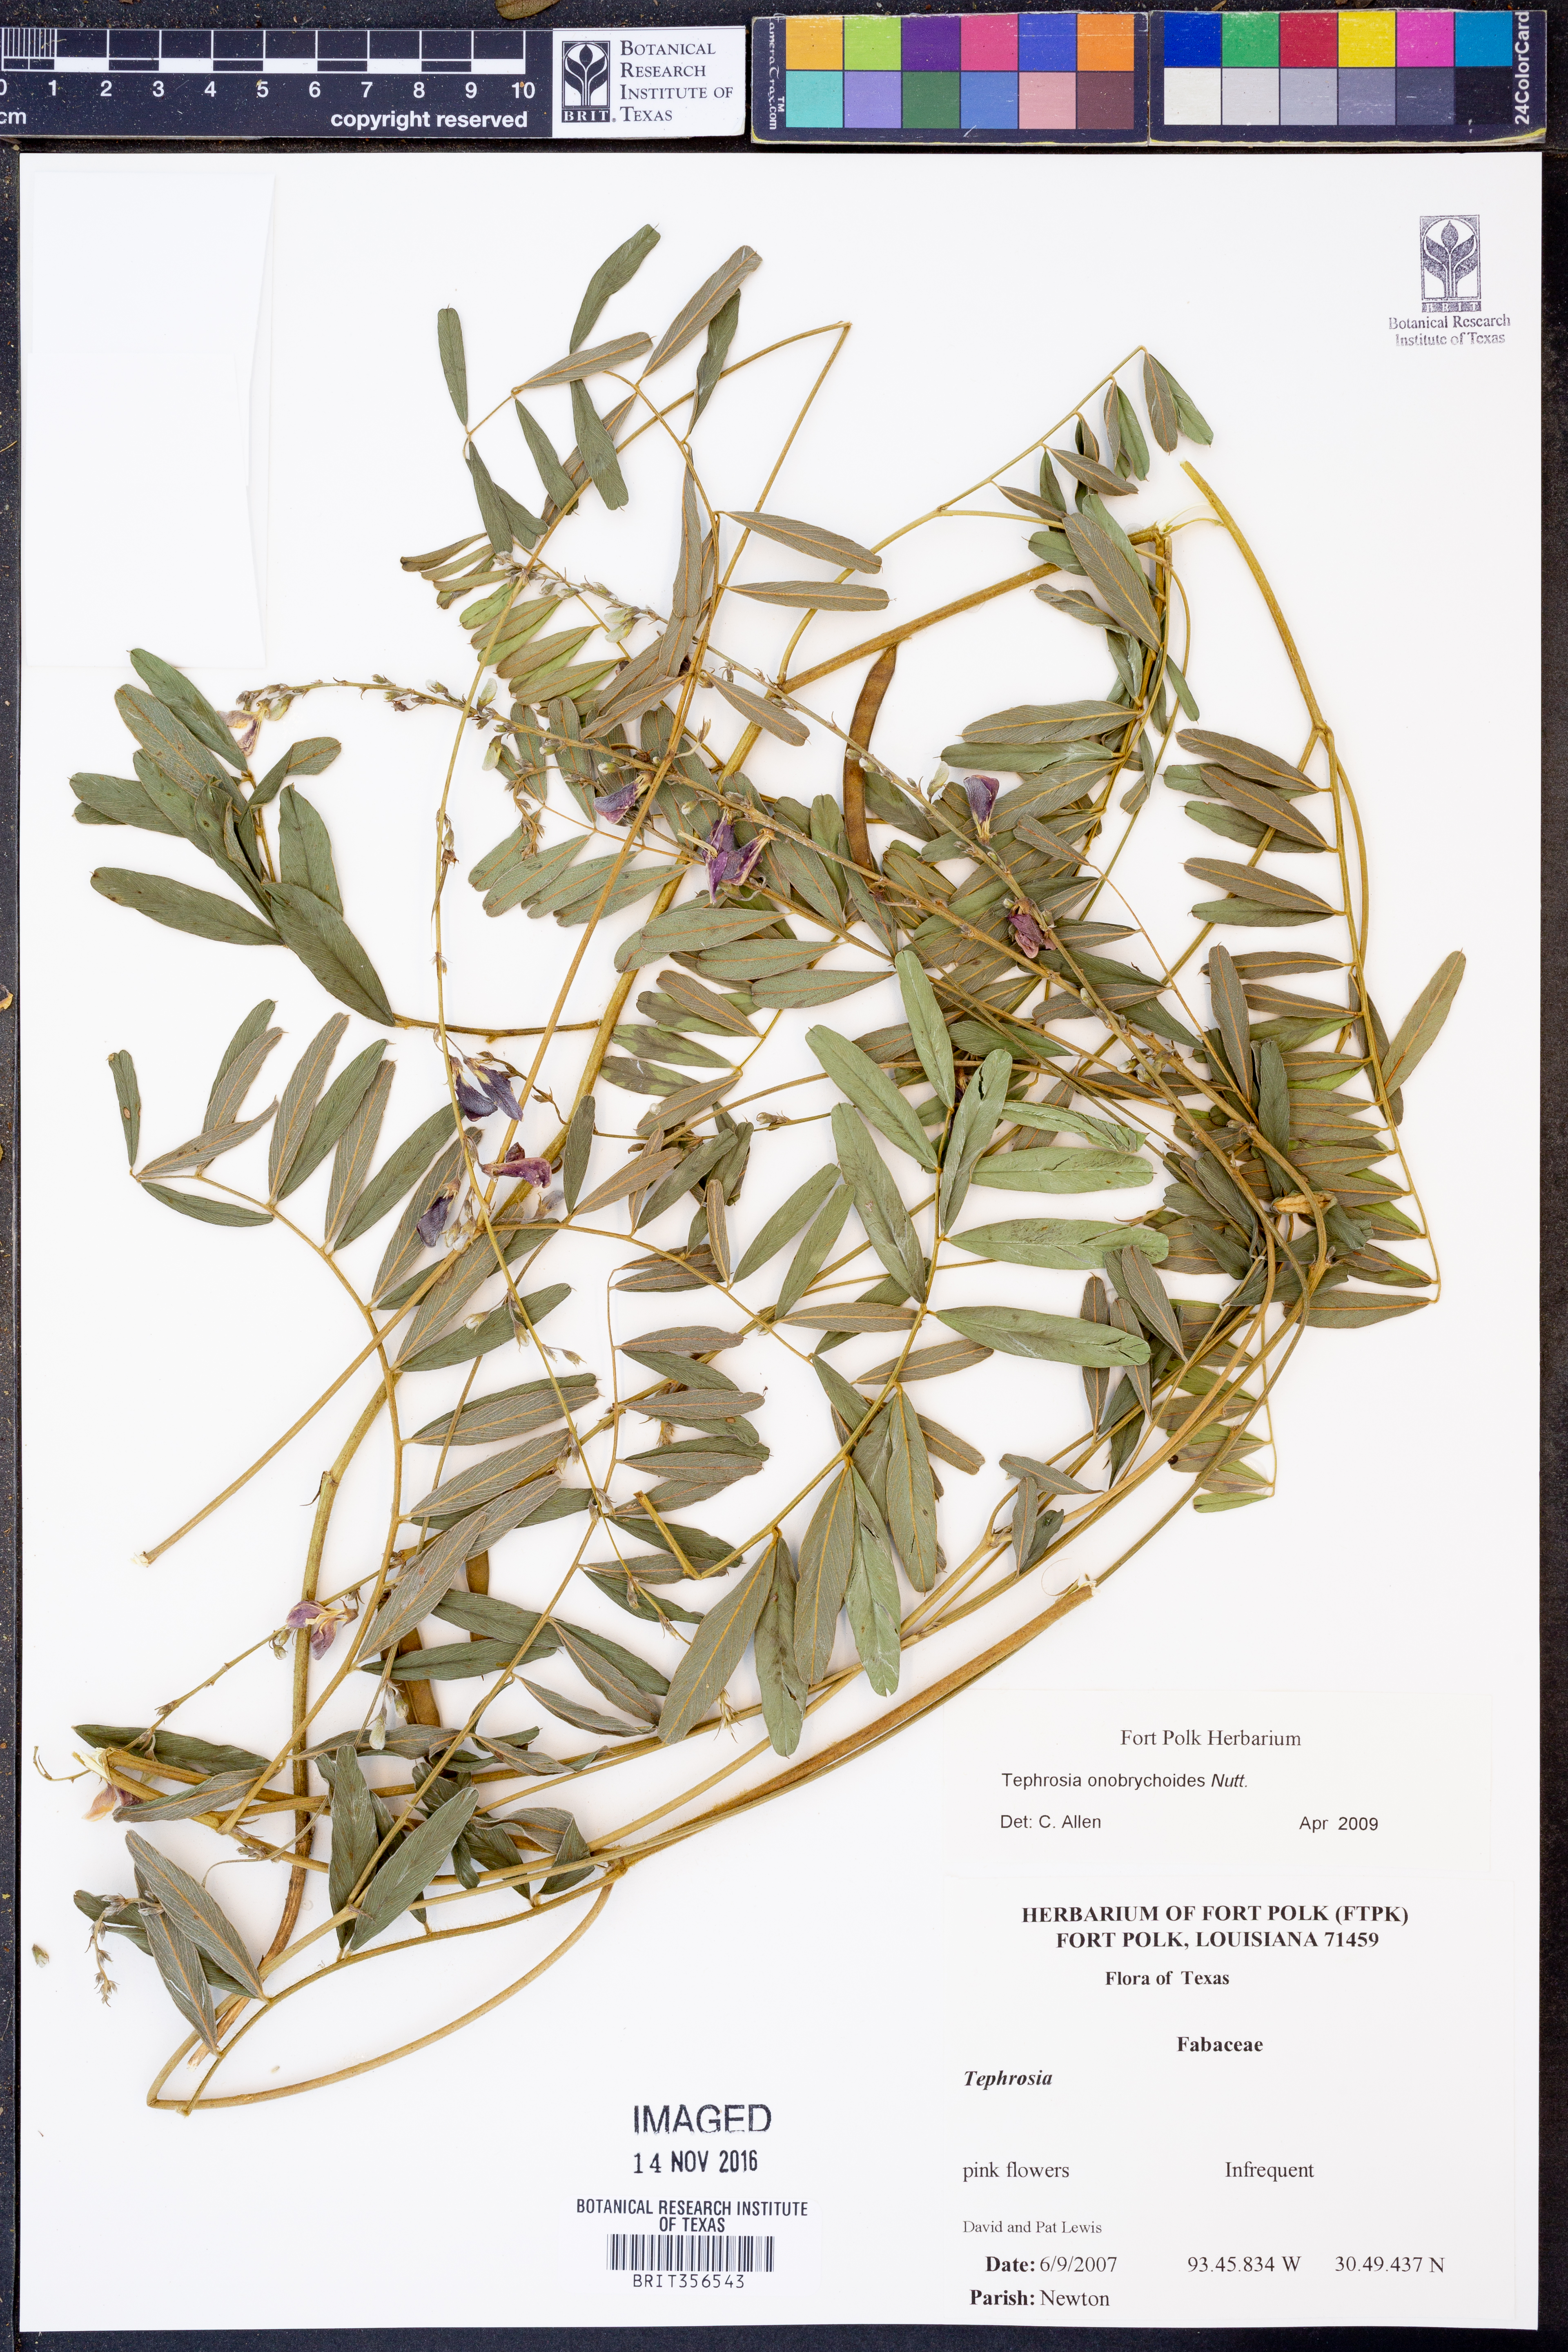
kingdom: Plantae
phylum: Tracheophyta
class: Magnoliopsida
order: Fabales
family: Fabaceae
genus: Tephrosia
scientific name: Tephrosia onobrychoides
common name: Multi-bloom hoary-pea
